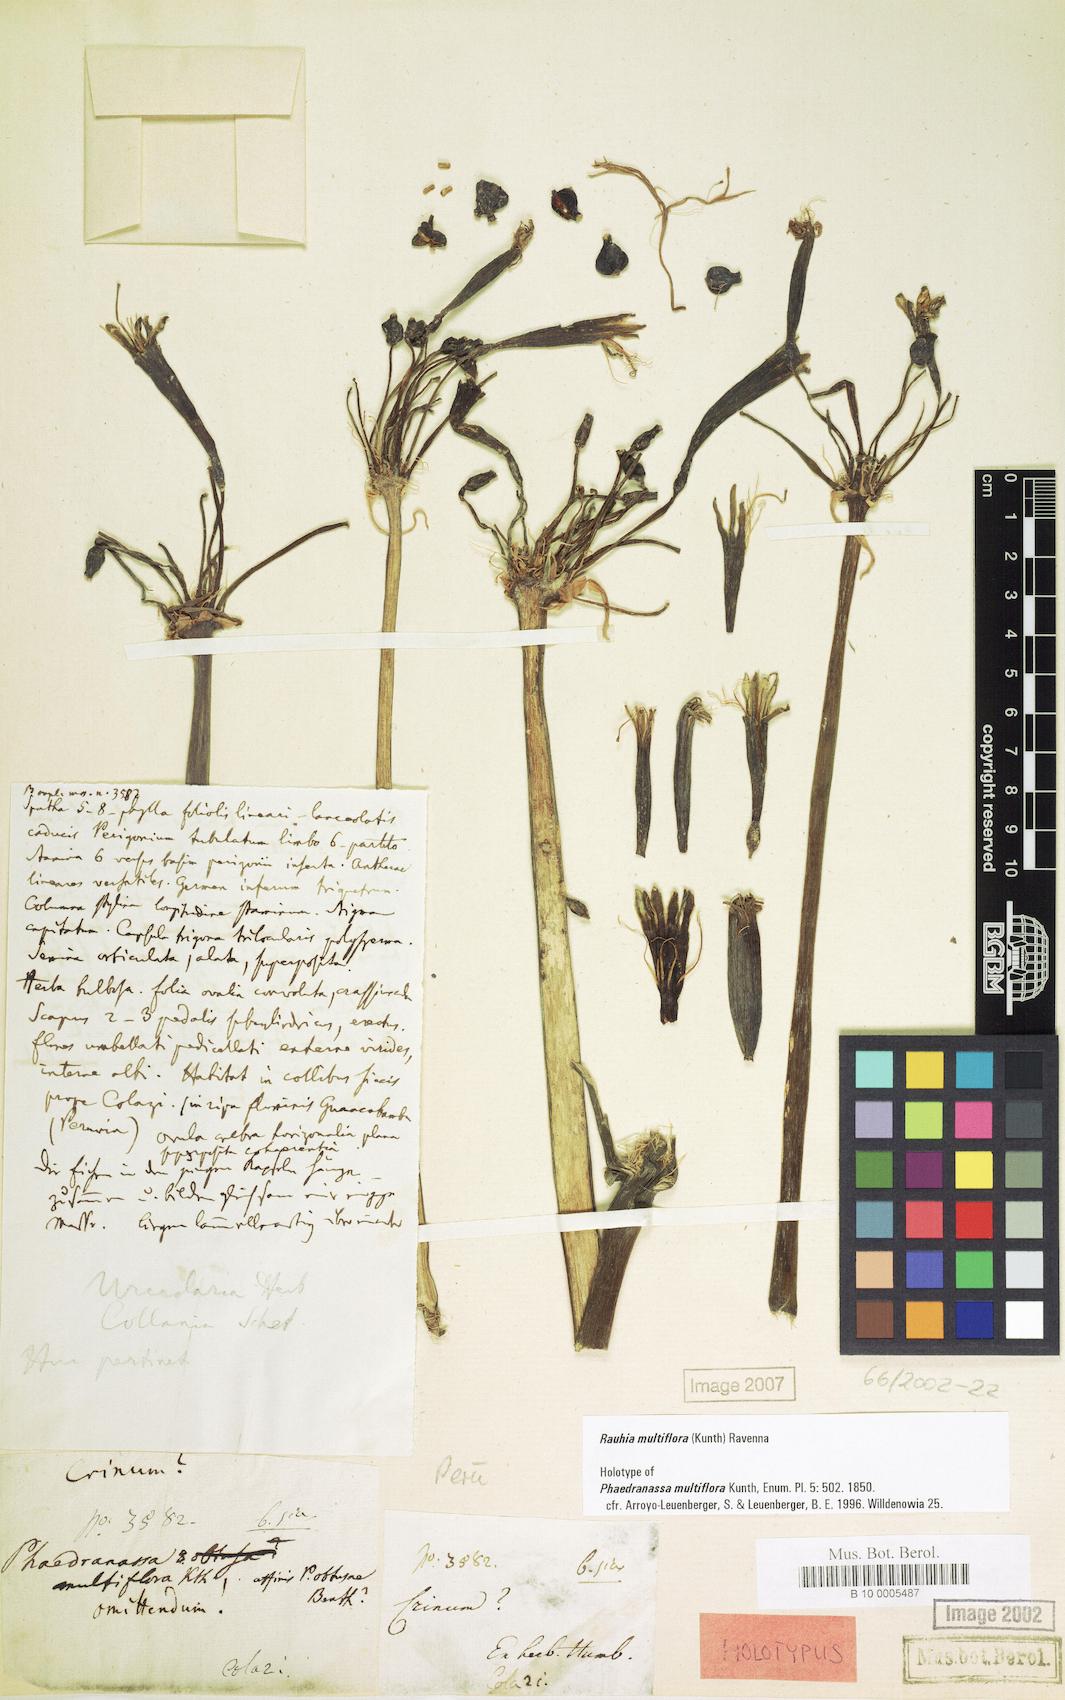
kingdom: Plantae
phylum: Tracheophyta
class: Liliopsida
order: Asparagales
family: Amaryllidaceae
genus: Rauhia
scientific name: Rauhia multiflora
